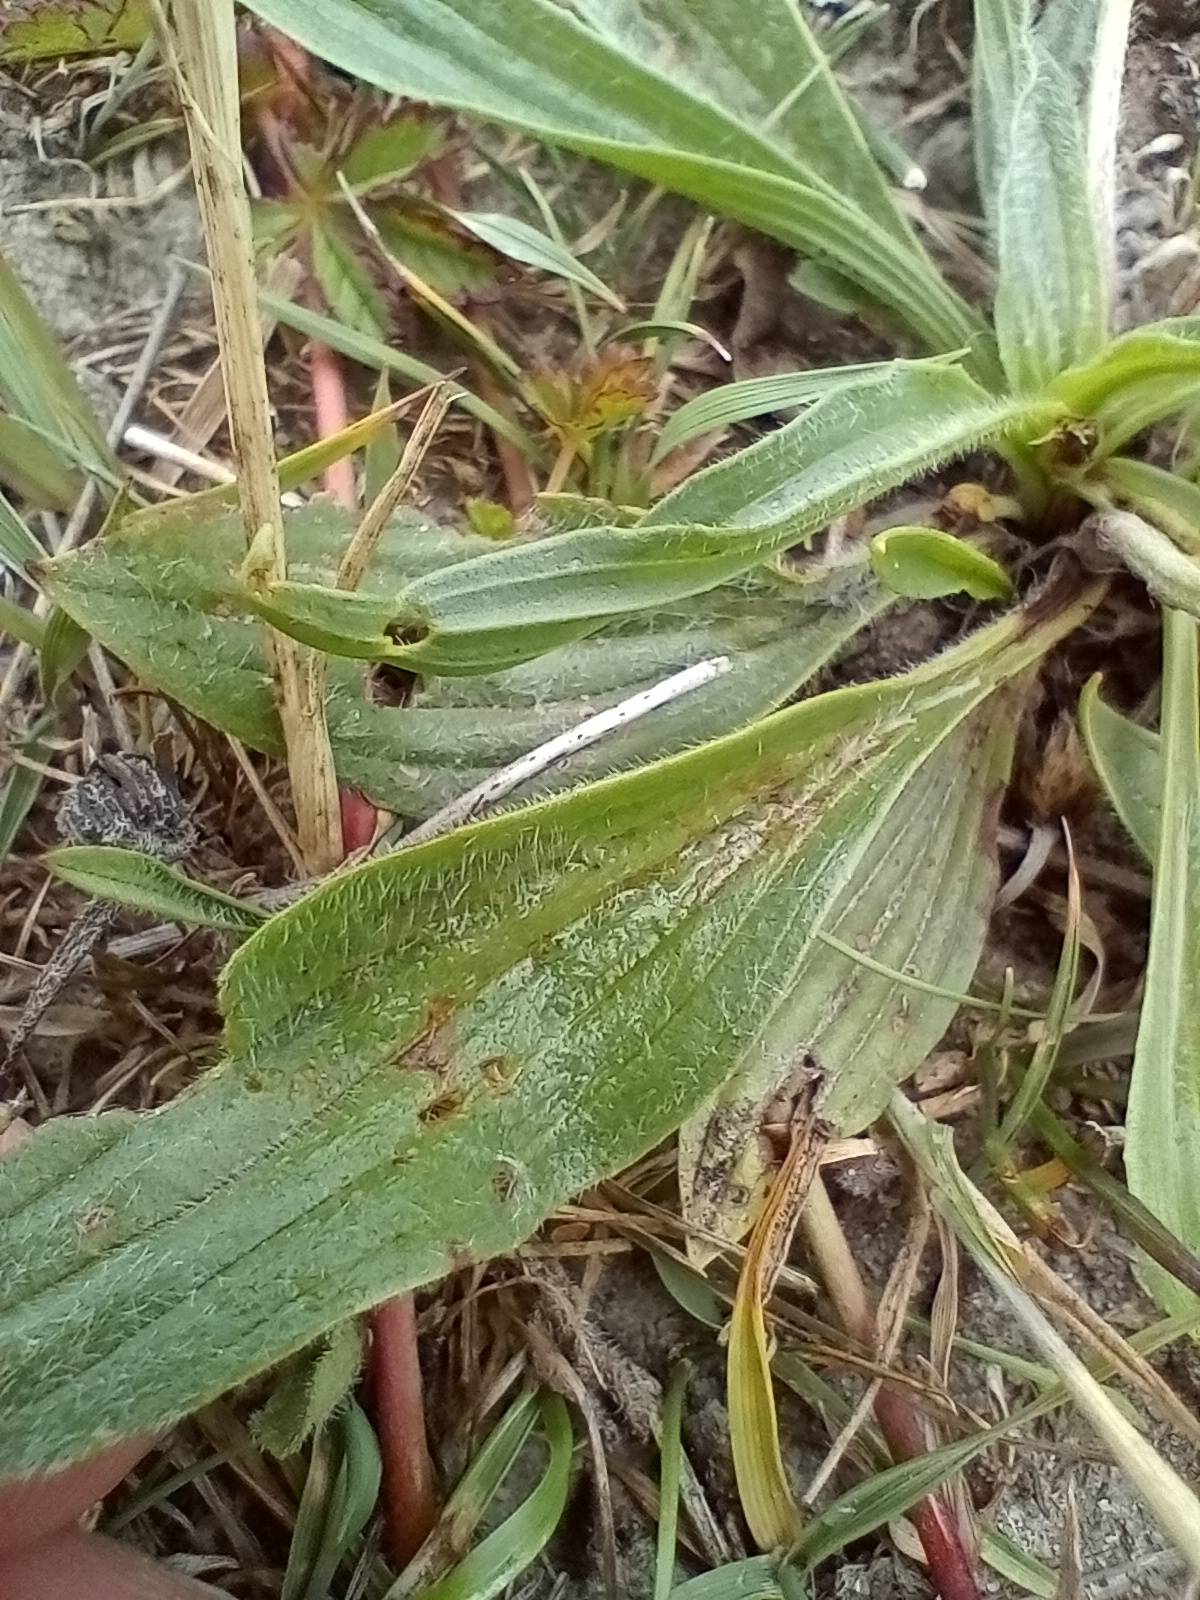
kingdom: Plantae
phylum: Tracheophyta
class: Magnoliopsida
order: Lamiales
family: Plantaginaceae
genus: Plantago
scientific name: Plantago lanceolata
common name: Lancet-vejbred
